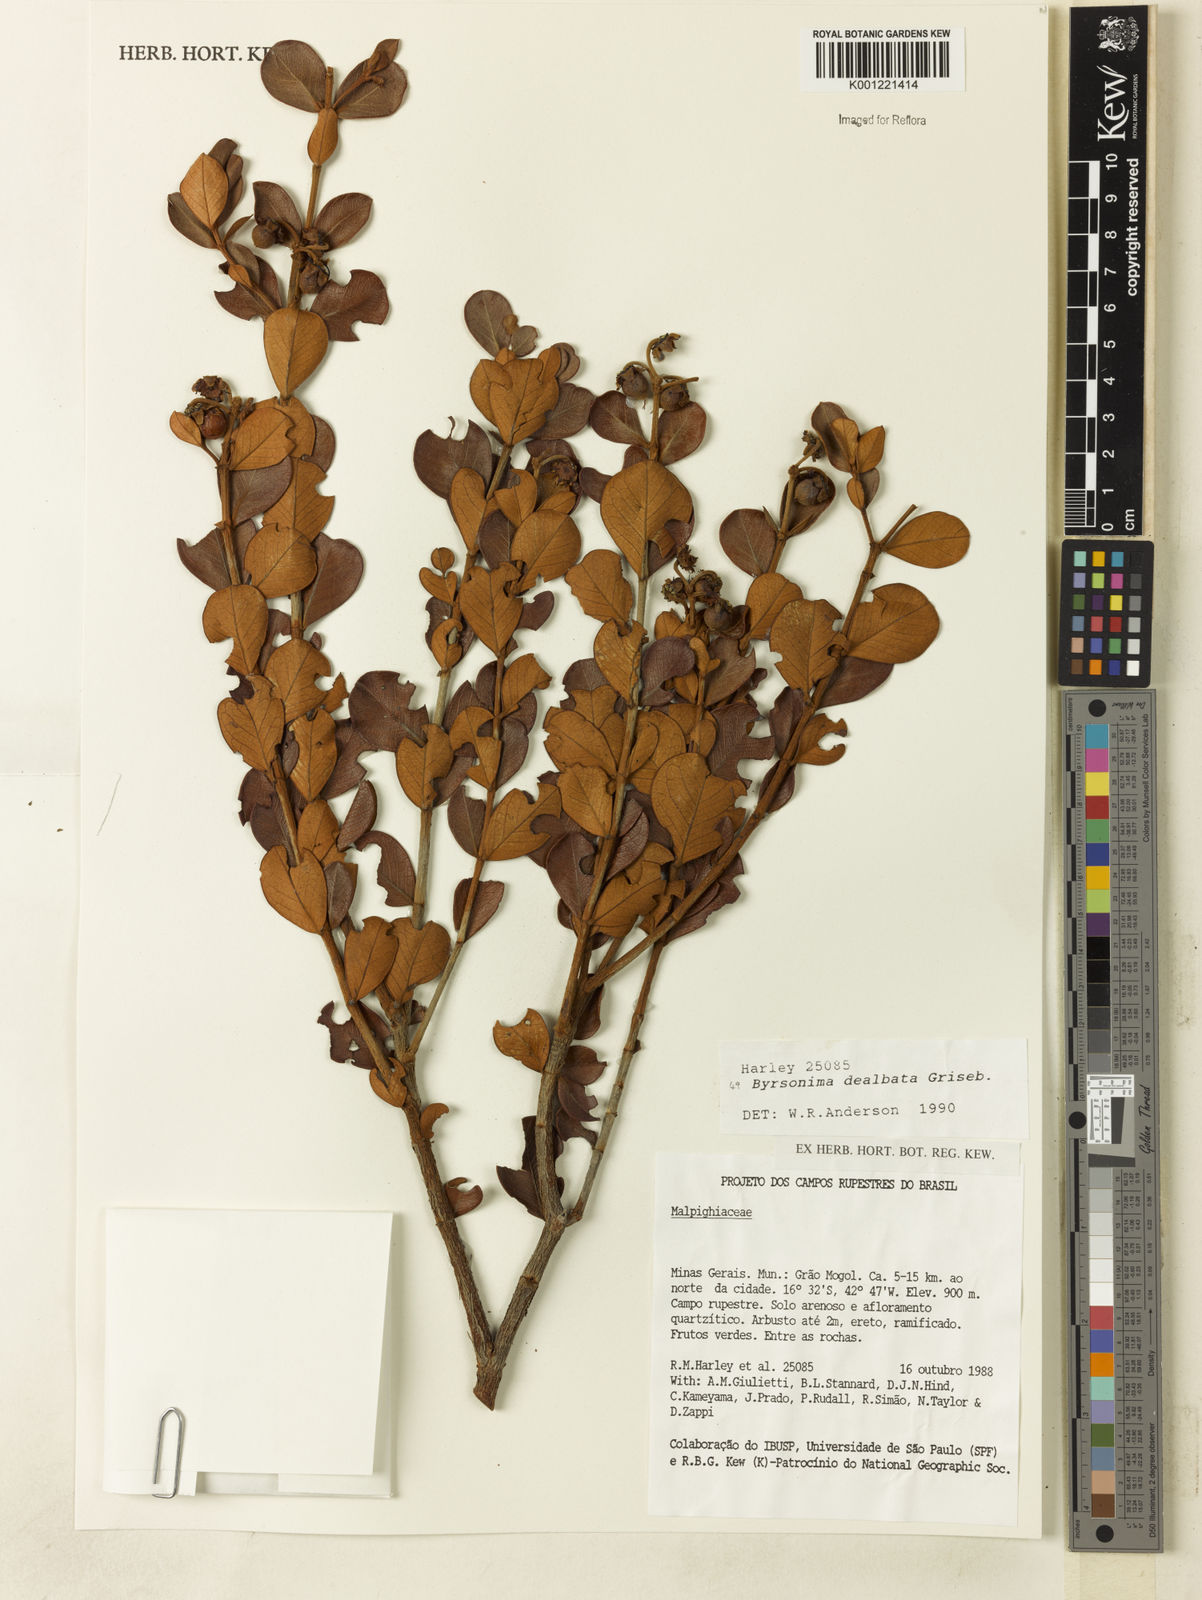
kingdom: Plantae
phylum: Tracheophyta
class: Magnoliopsida
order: Malpighiales
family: Malpighiaceae
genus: Byrsonima
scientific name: Byrsonima dealbata
